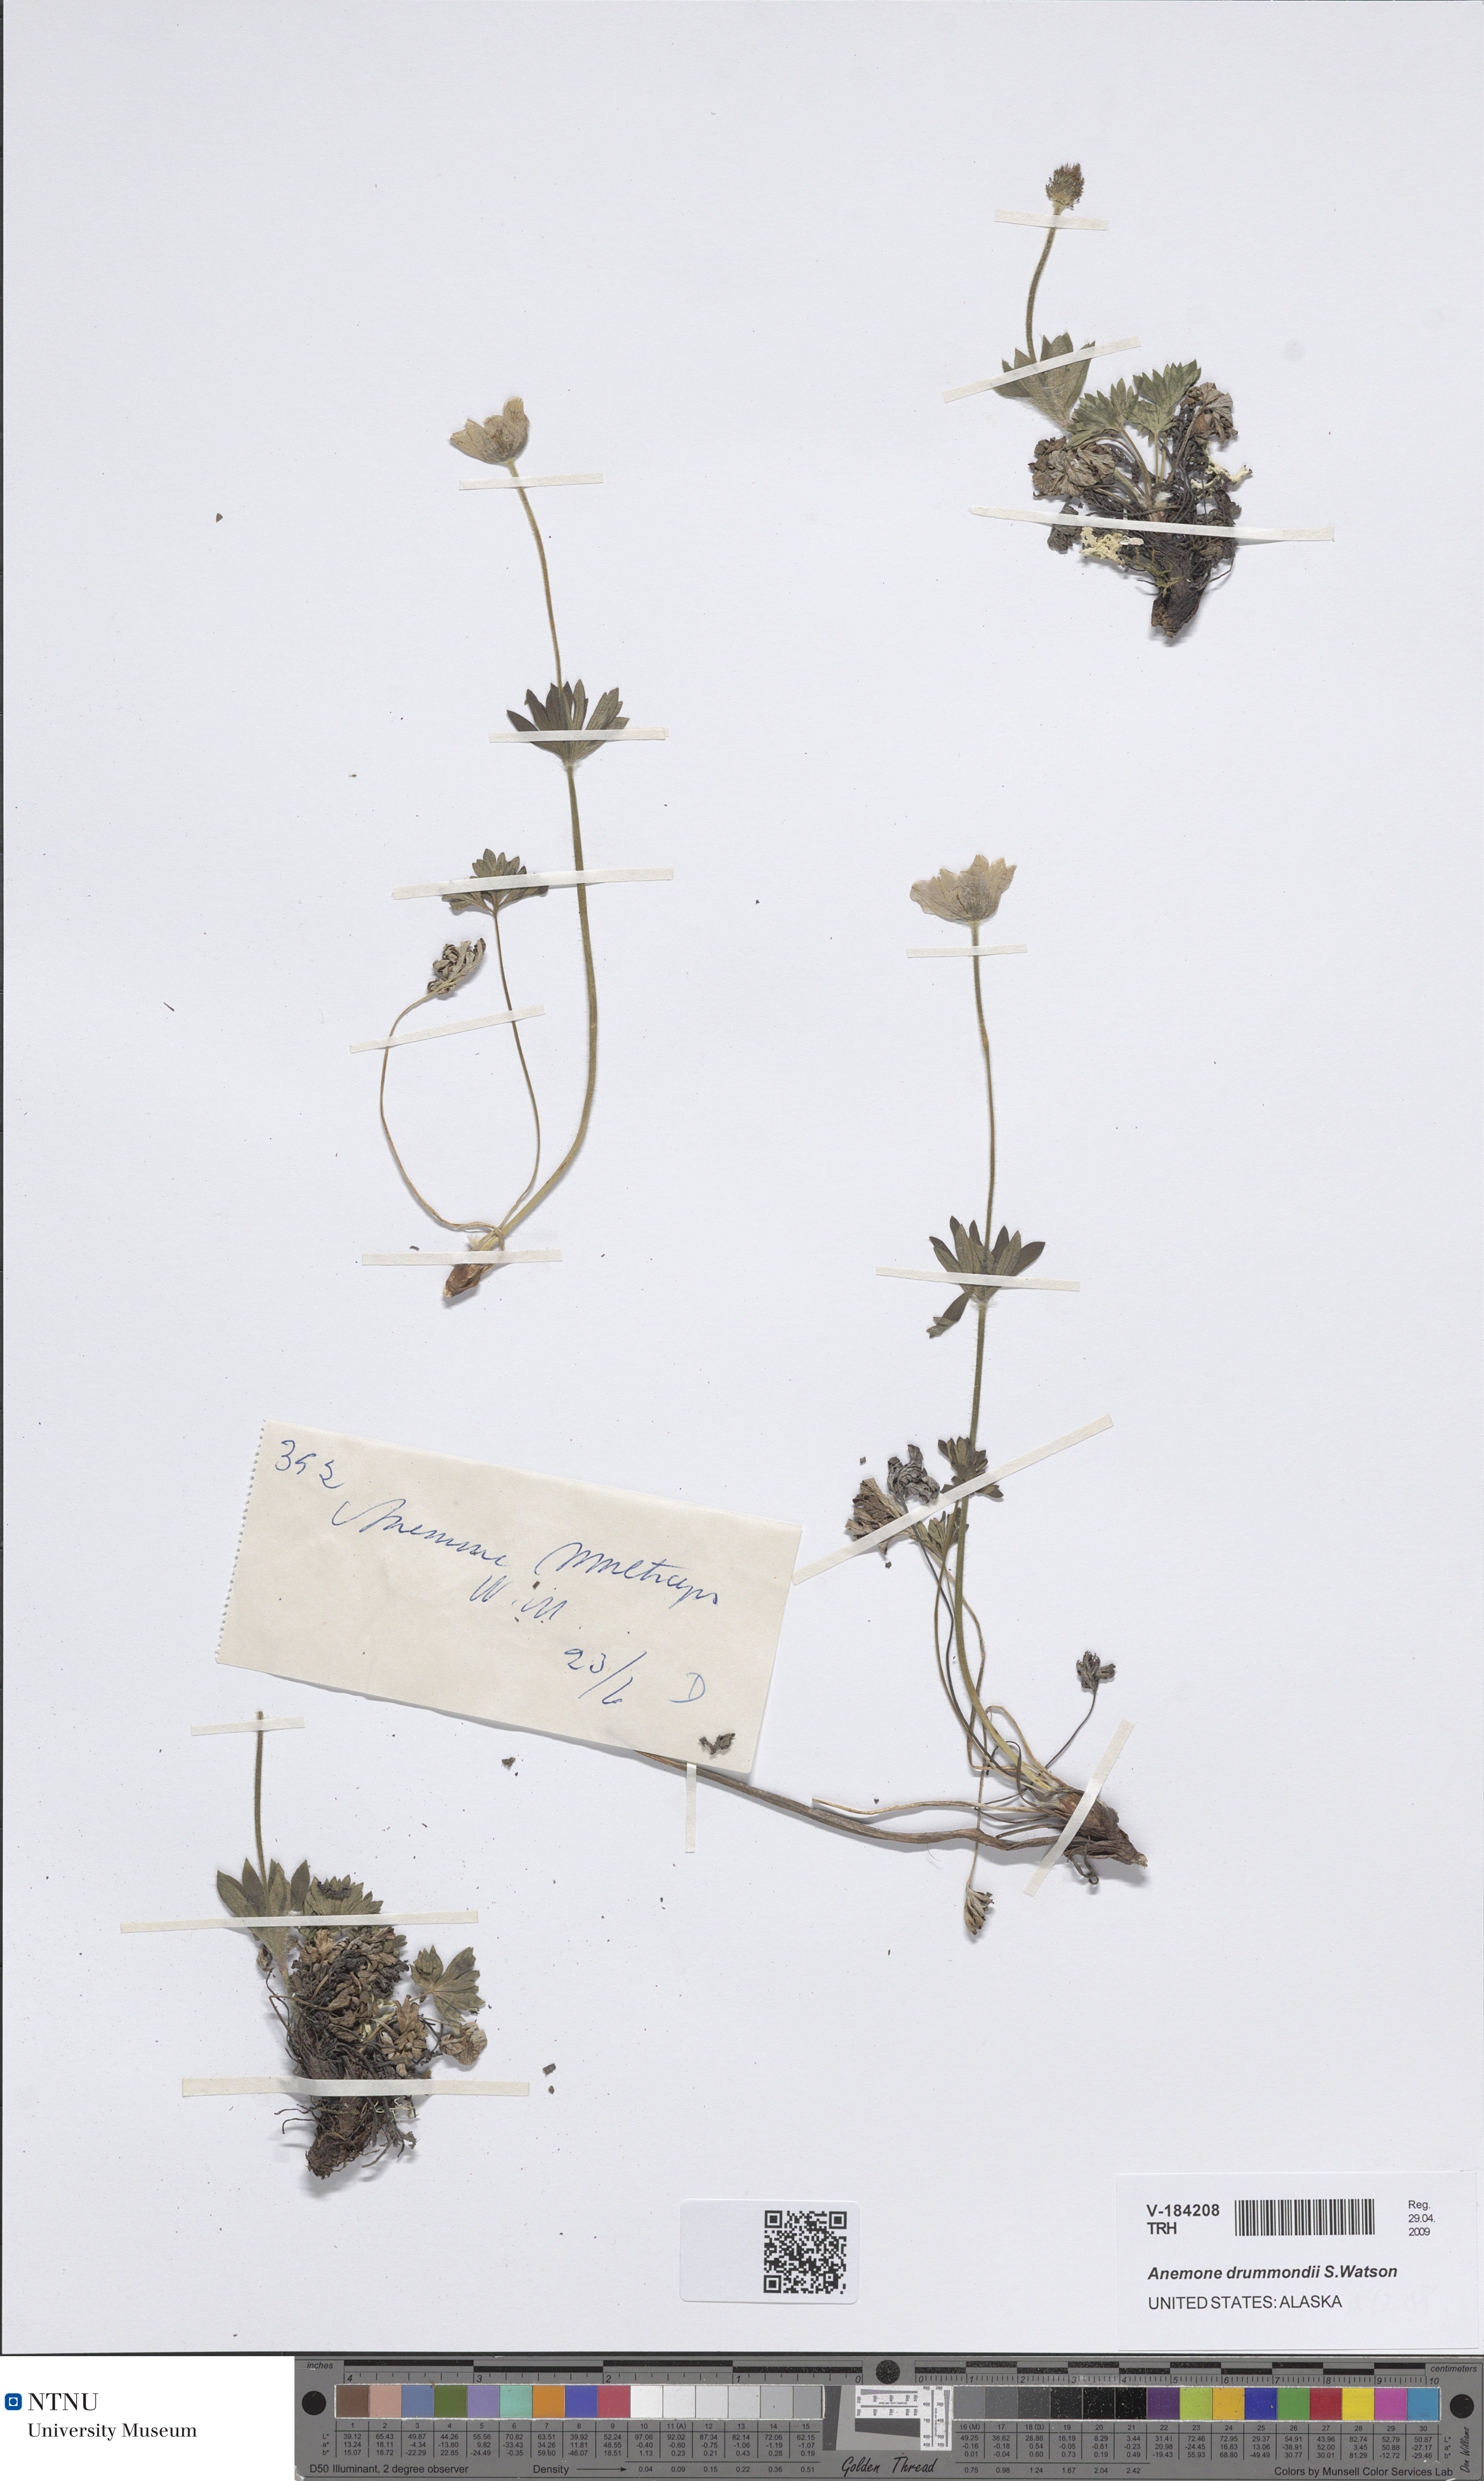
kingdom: Plantae
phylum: Tracheophyta
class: Magnoliopsida
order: Ranunculales
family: Ranunculaceae
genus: Anemone
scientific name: Anemone drummondii
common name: Drummond's anemone
